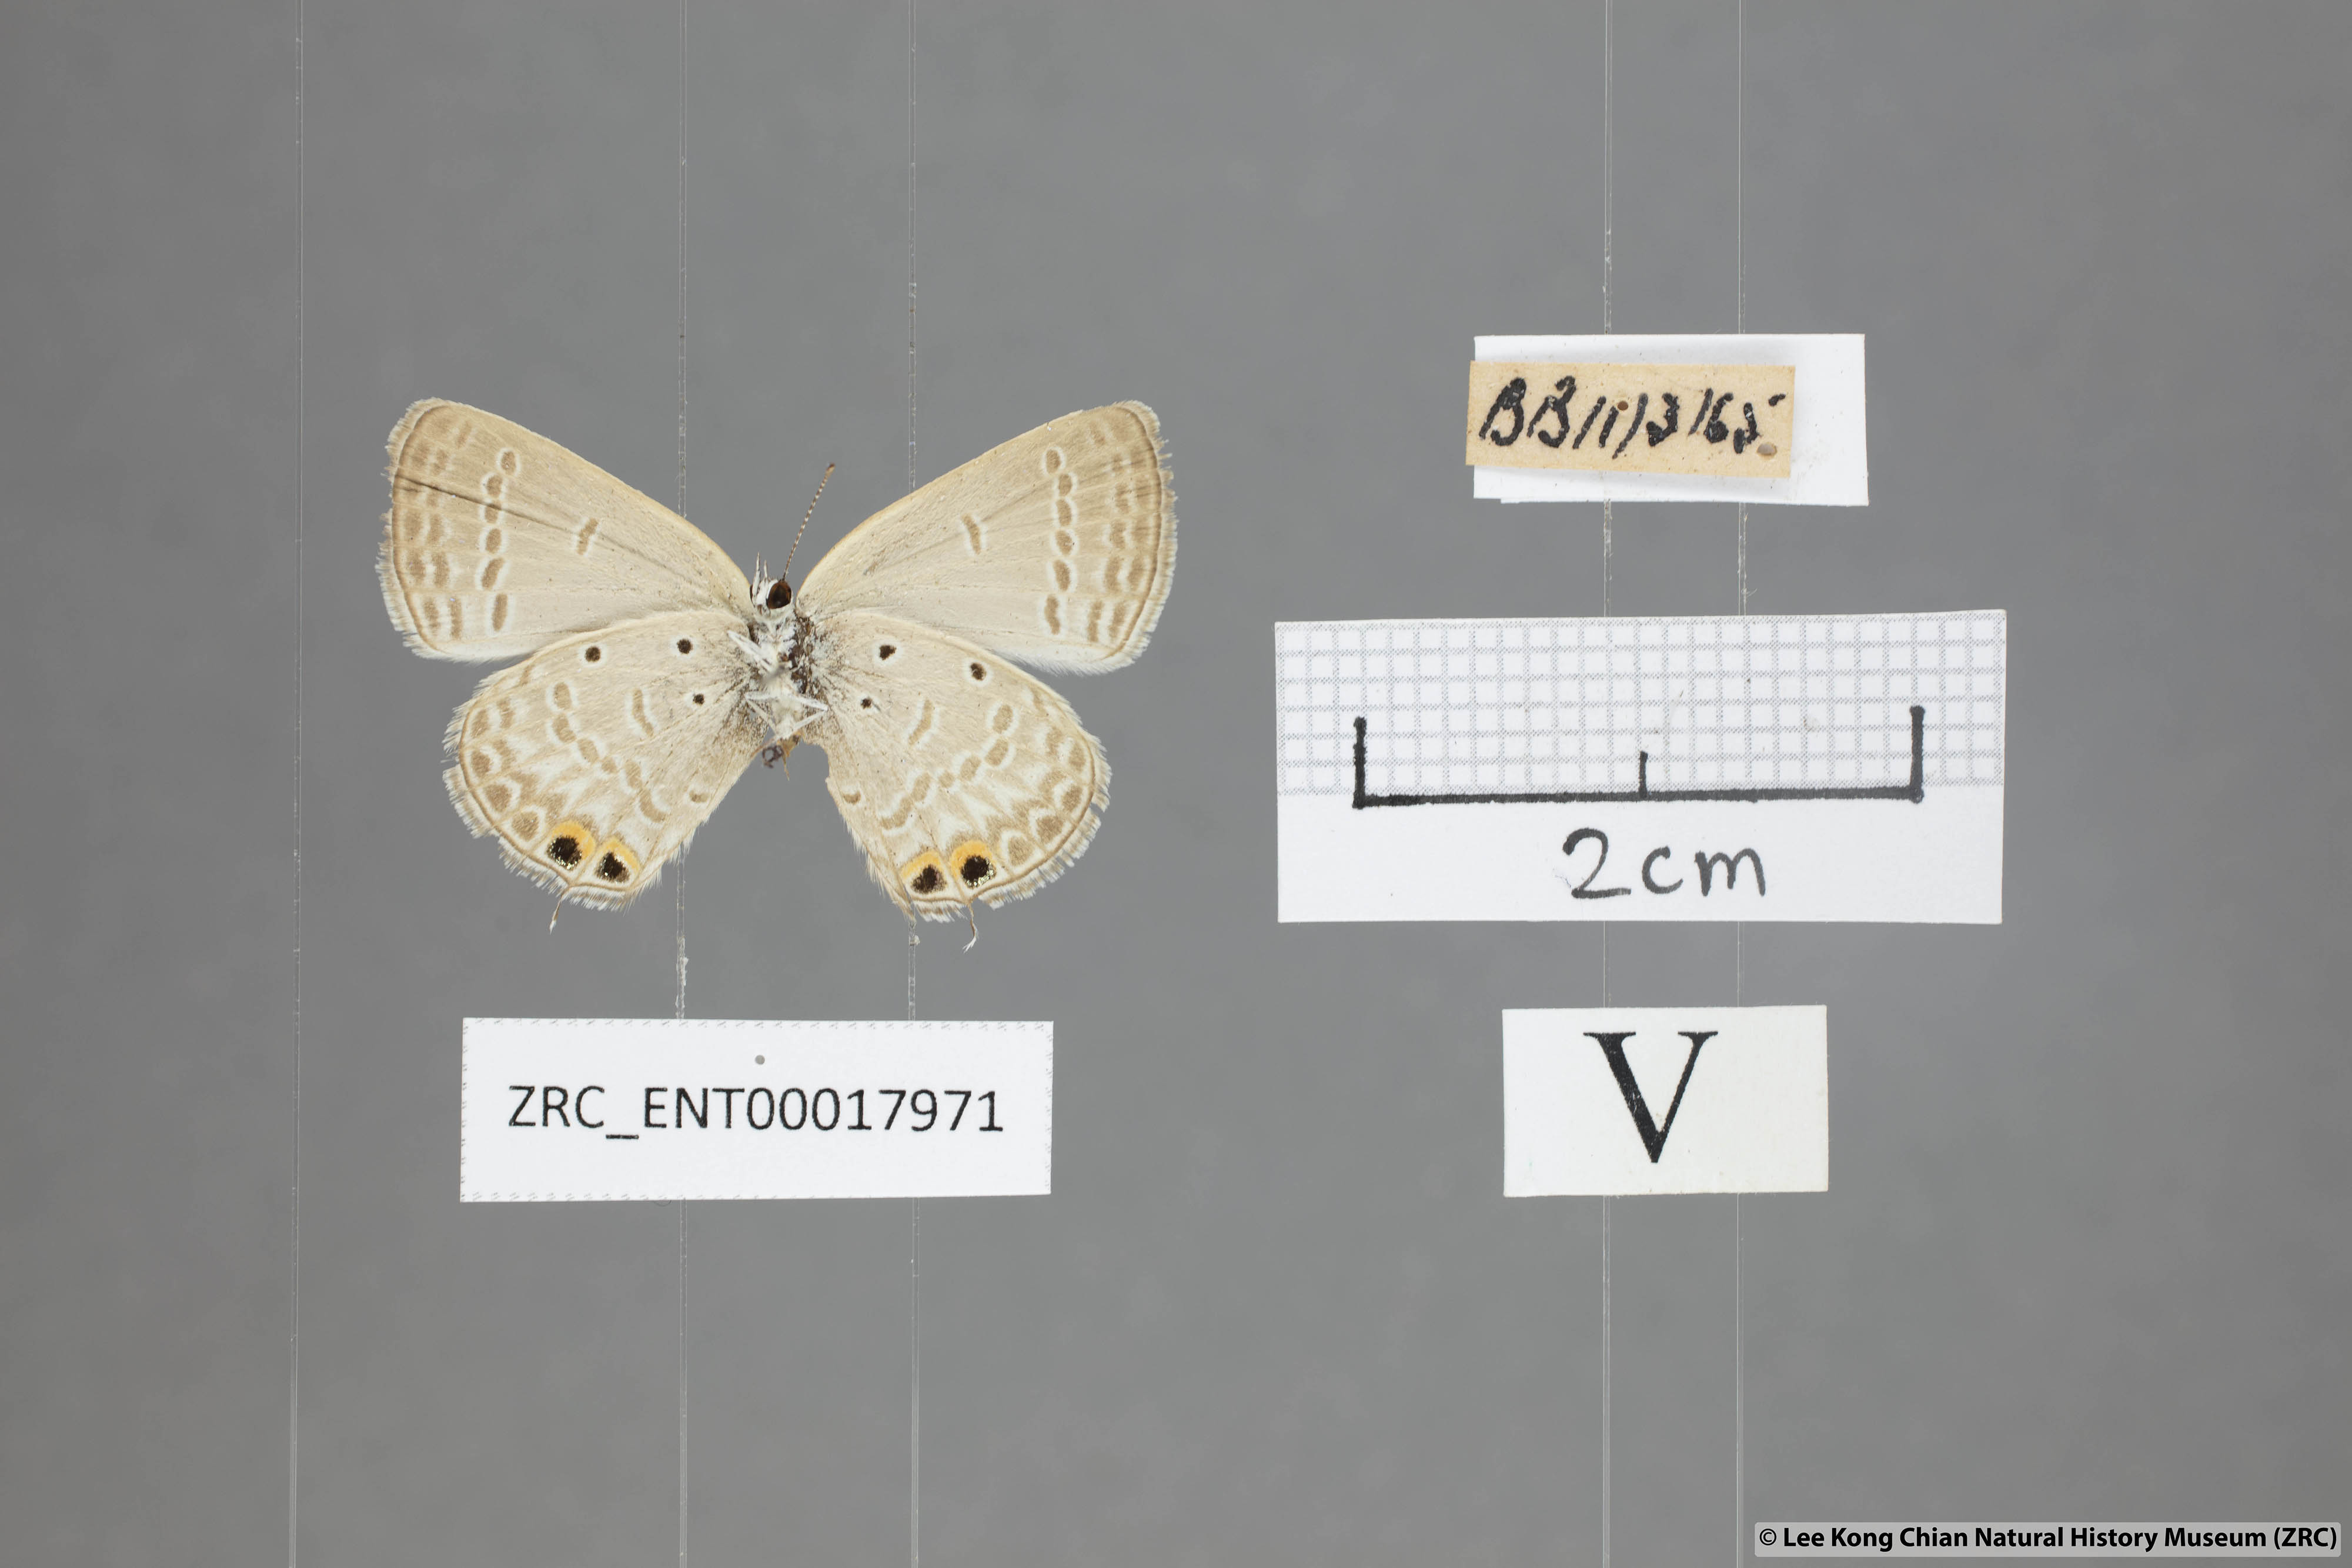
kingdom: Animalia
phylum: Arthropoda
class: Insecta
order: Lepidoptera
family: Lycaenidae
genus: Euchrysops
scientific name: Euchrysops cnejus
